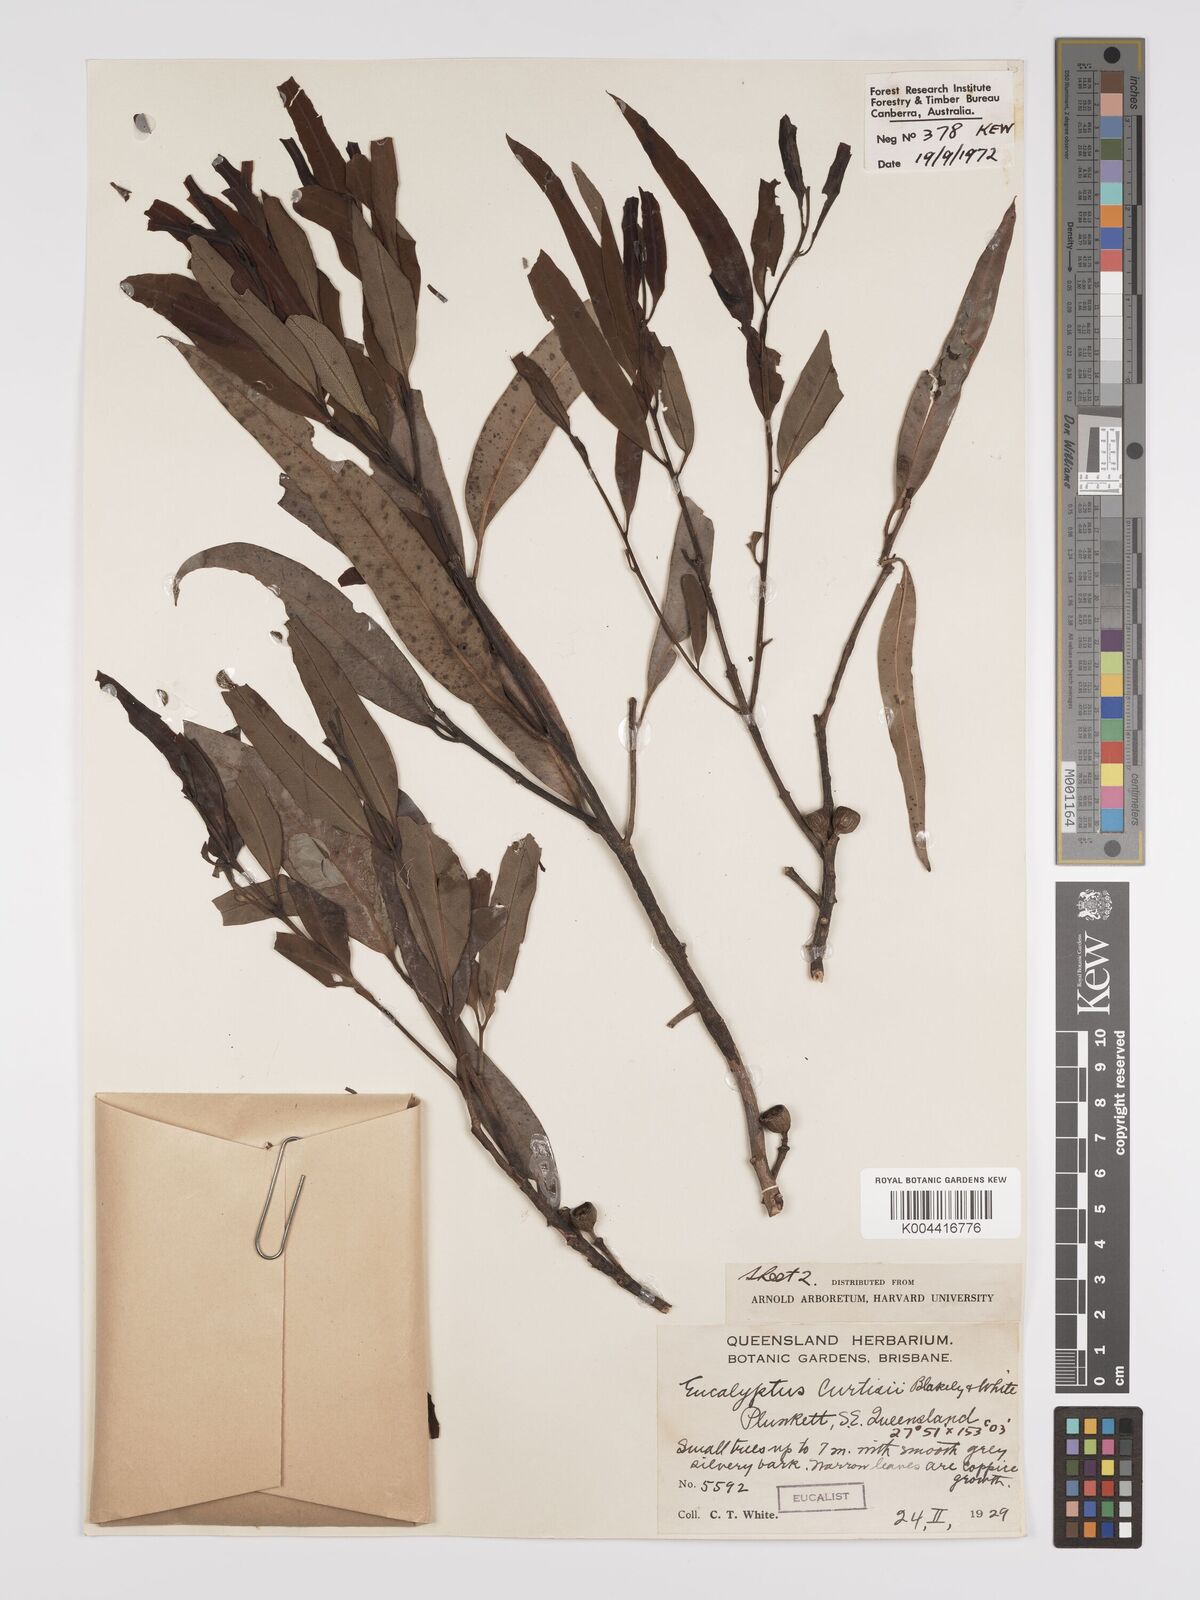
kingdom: Plantae
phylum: Tracheophyta
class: Magnoliopsida
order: Myrtales
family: Myrtaceae
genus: Eucalyptus
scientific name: Eucalyptus curtisii
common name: Plunkett mallee
